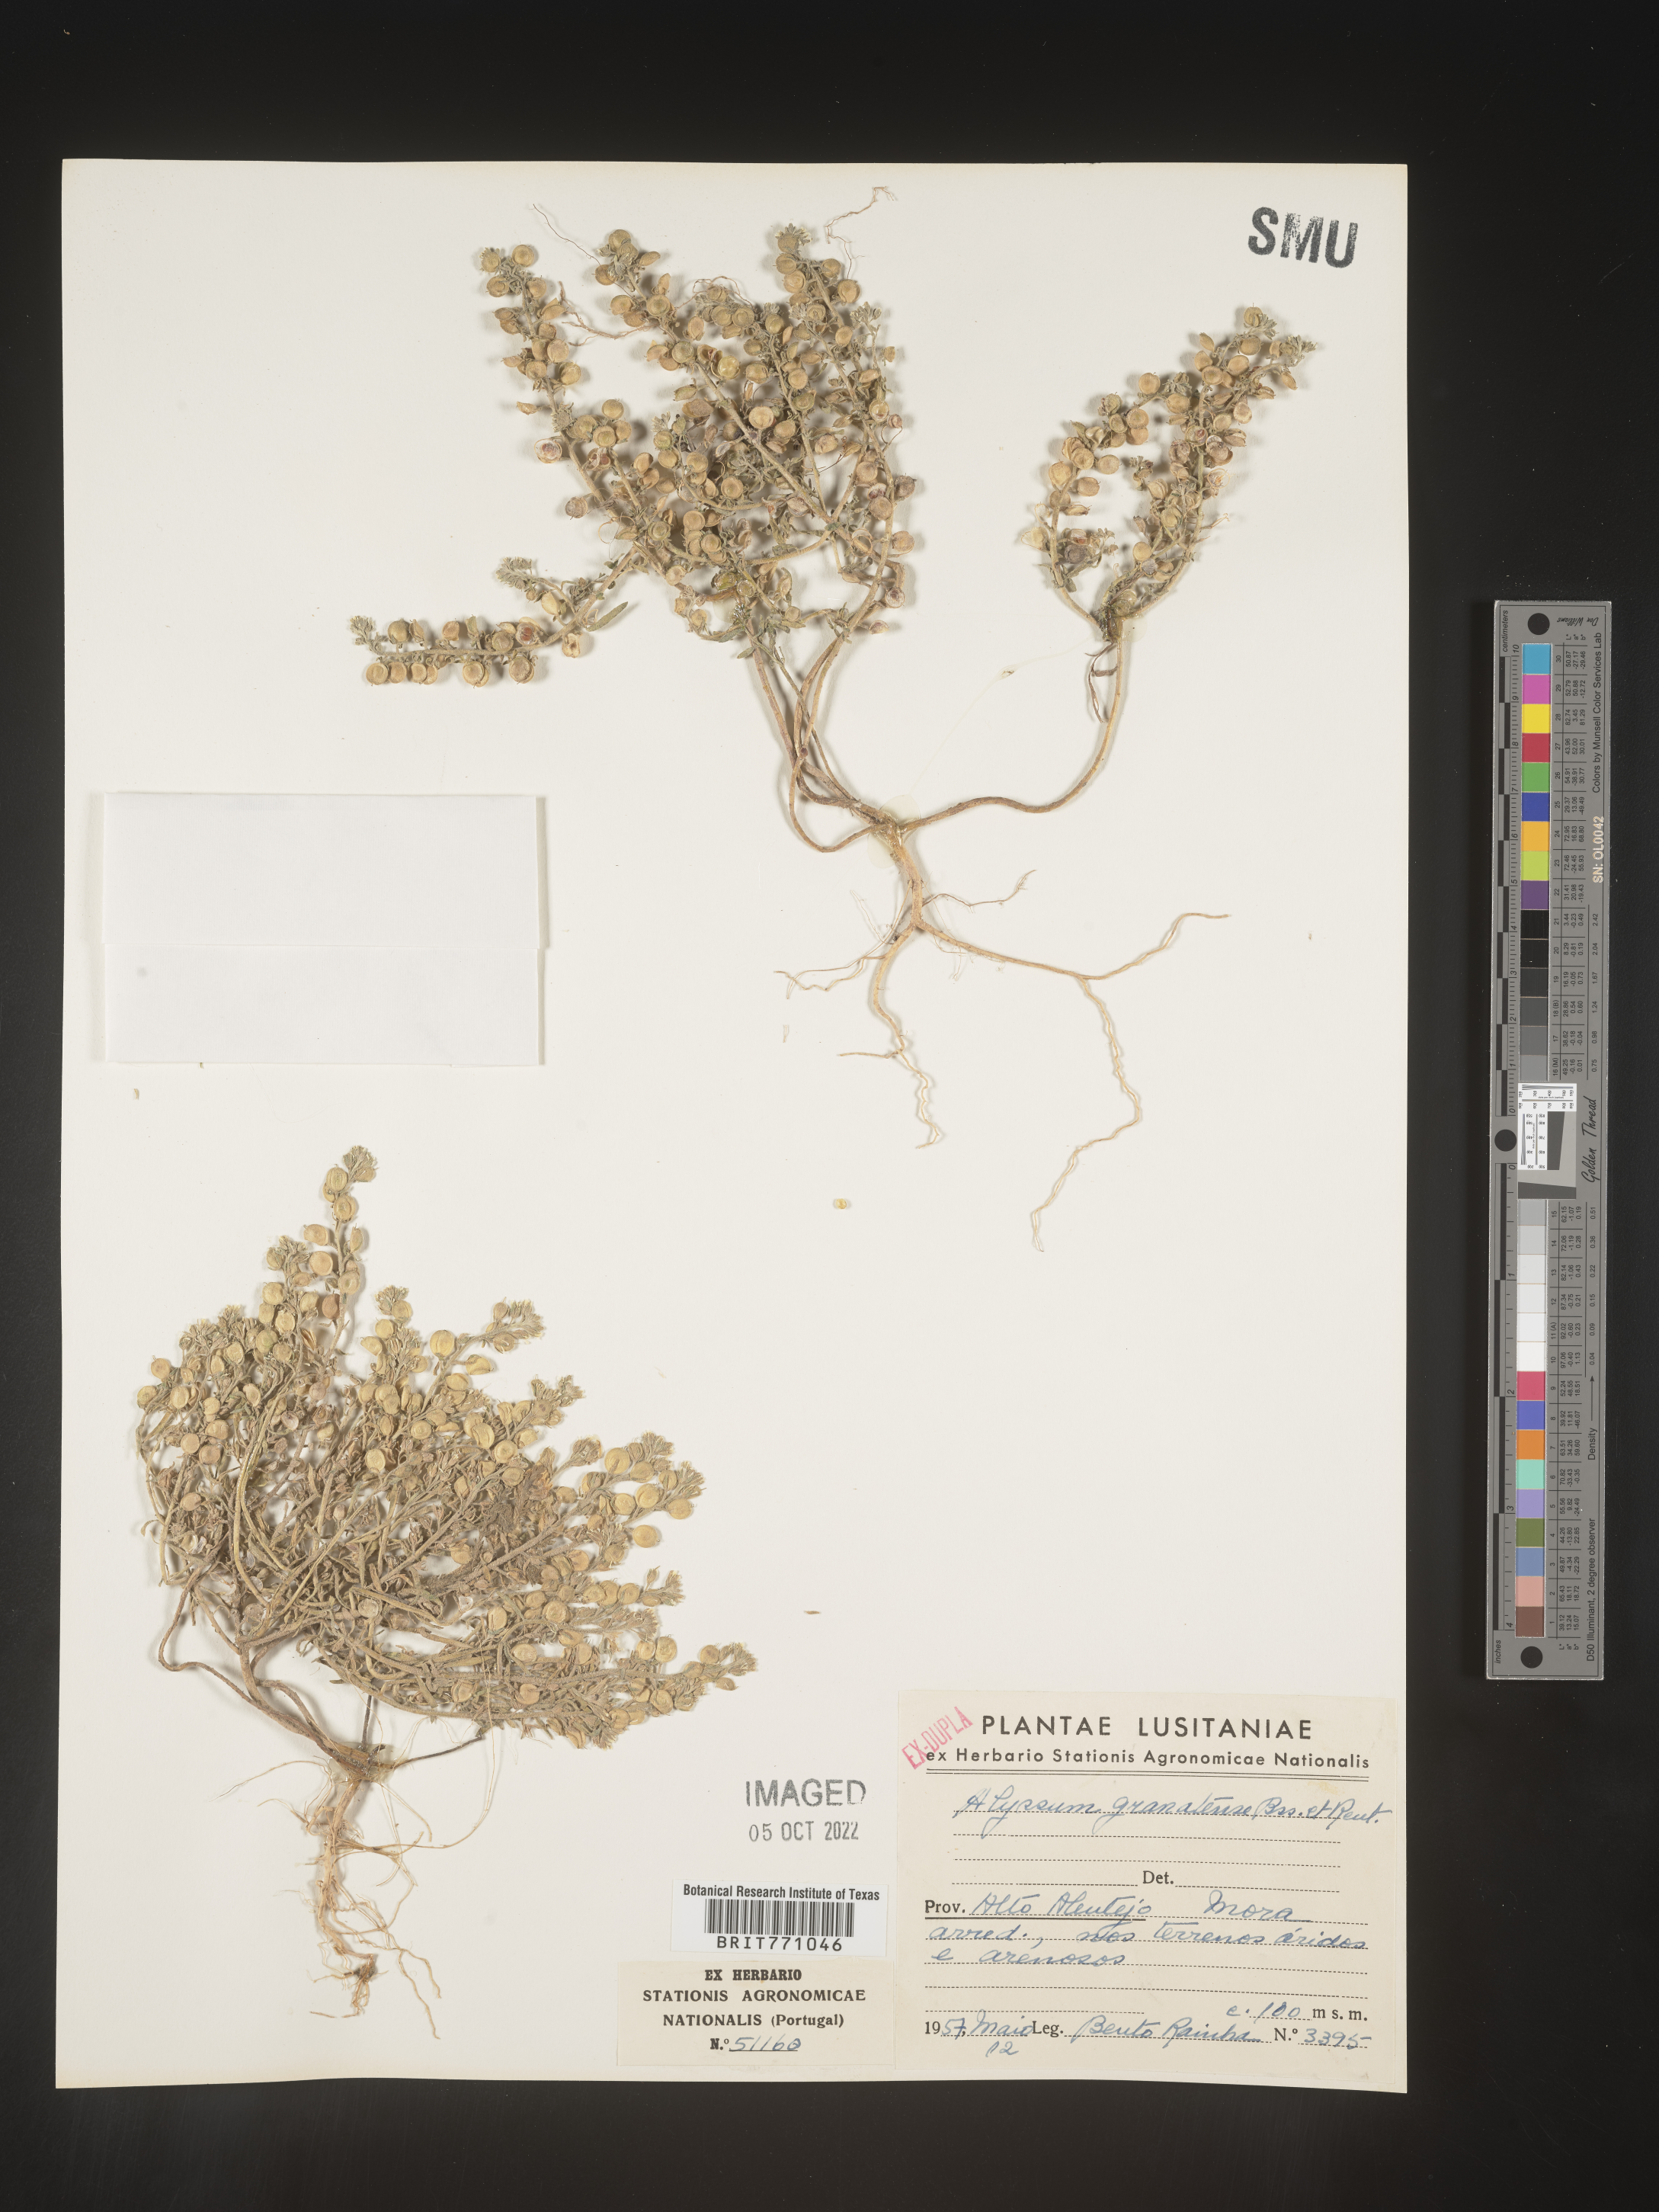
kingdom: Plantae
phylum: Tracheophyta
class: Magnoliopsida
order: Brassicales
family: Brassicaceae
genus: Alyssum
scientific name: Alyssum
